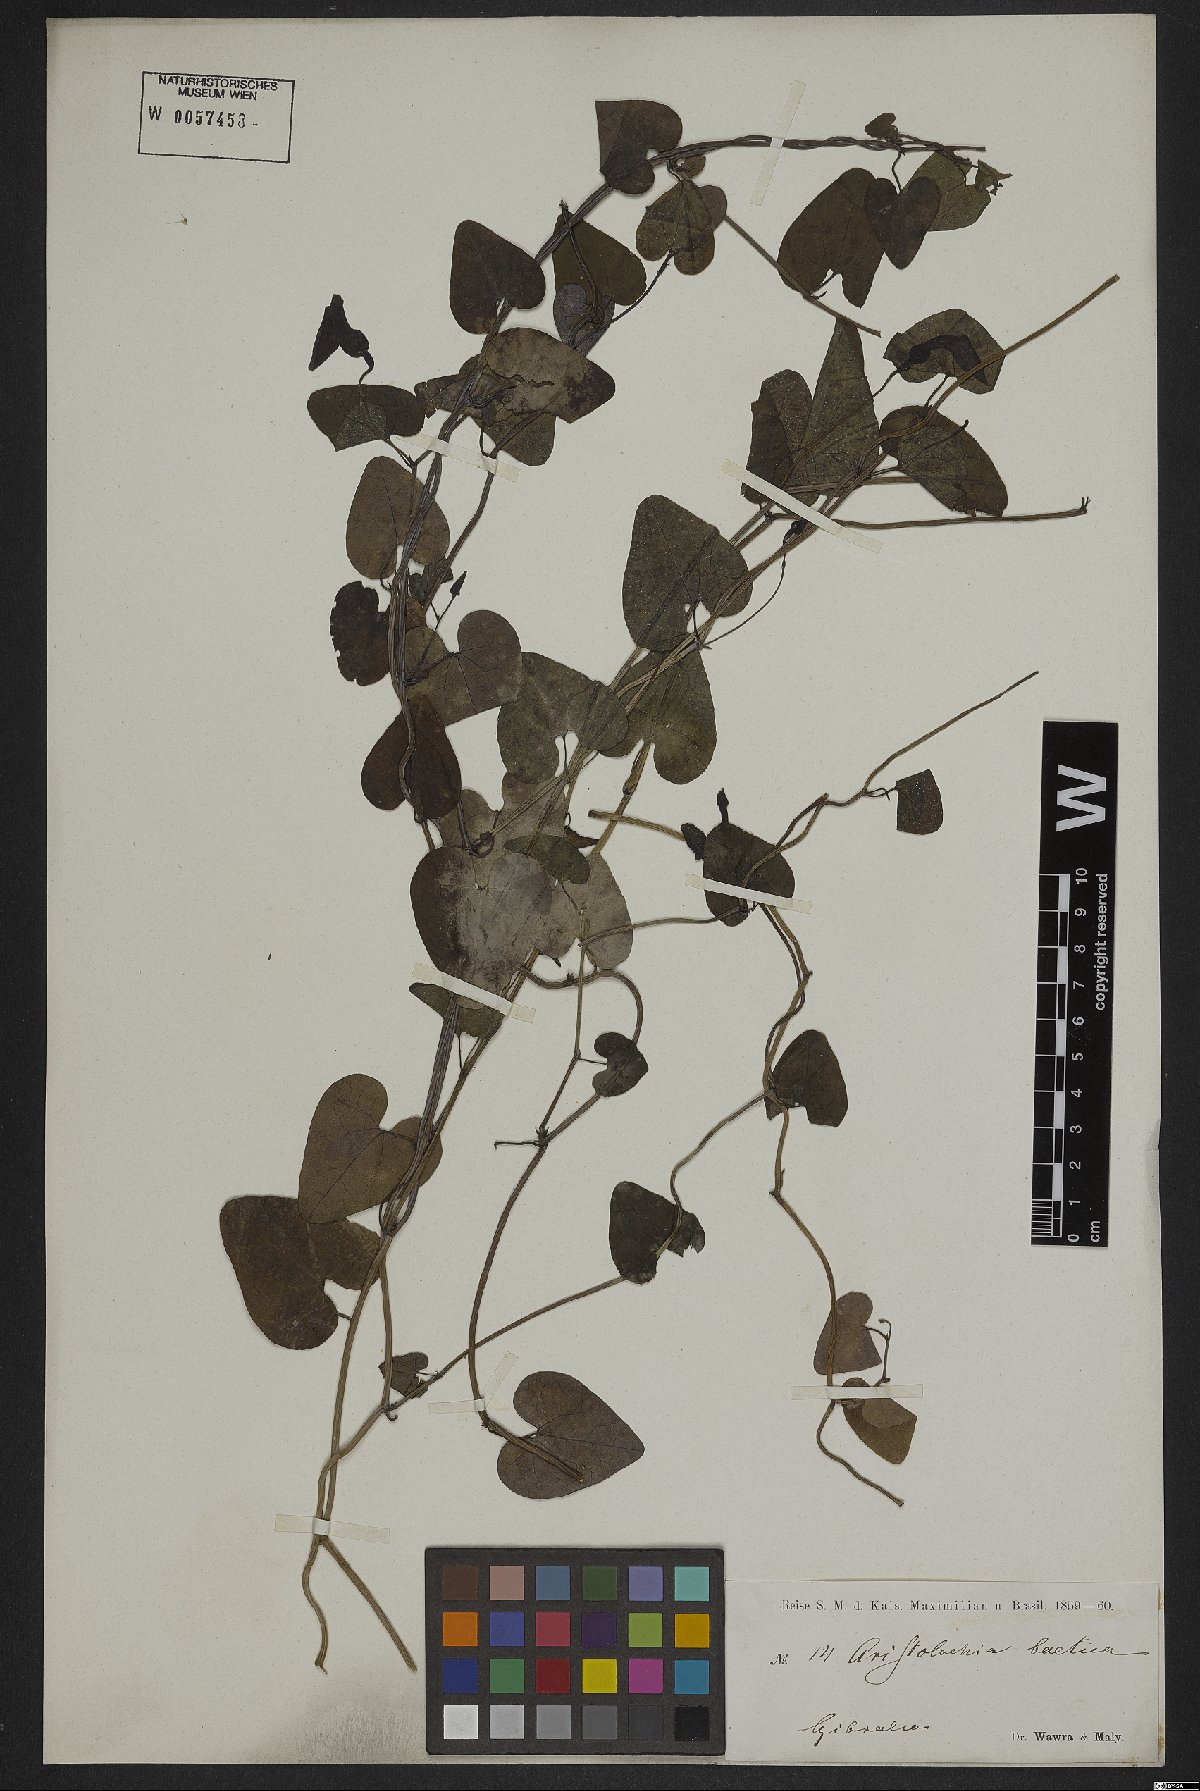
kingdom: Plantae
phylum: Tracheophyta
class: Magnoliopsida
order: Piperales
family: Aristolochiaceae
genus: Aristolochia
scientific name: Aristolochia baetica
